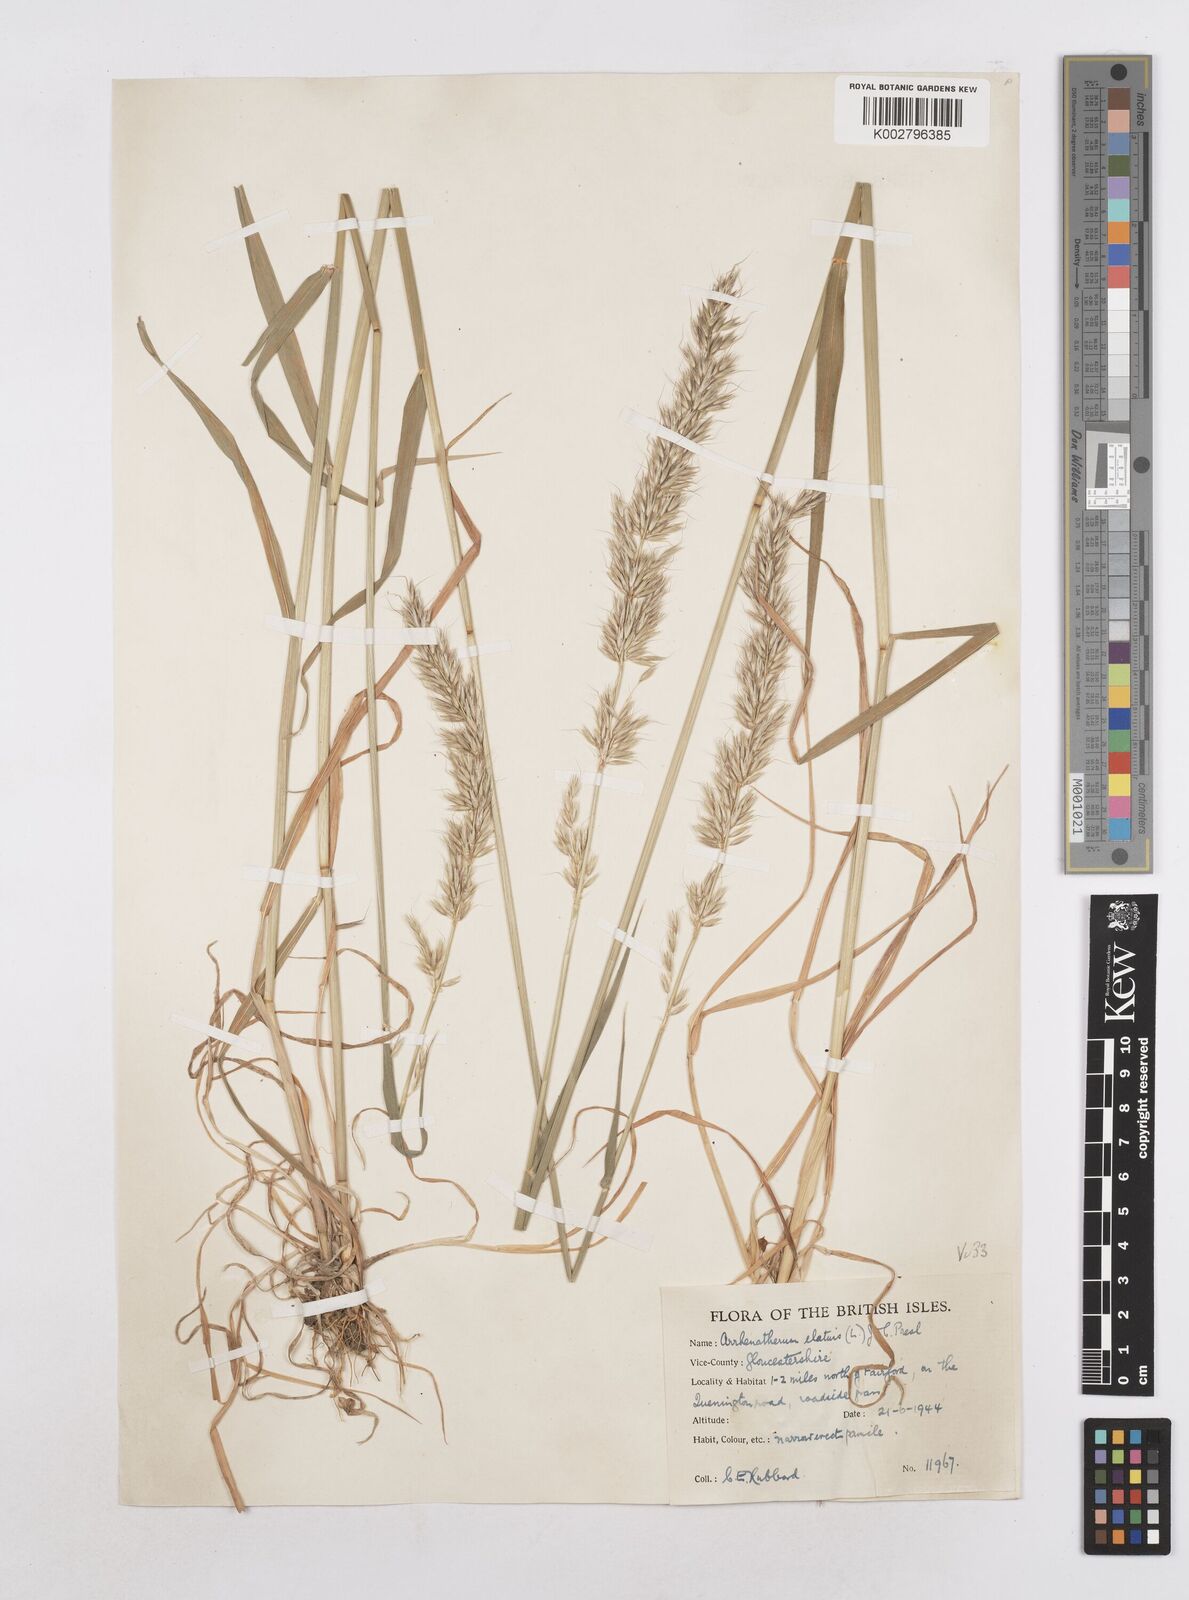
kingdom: Plantae
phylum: Tracheophyta
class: Liliopsida
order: Poales
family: Poaceae
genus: Arrhenatherum
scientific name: Arrhenatherum elatius
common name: Tall oatgrass
